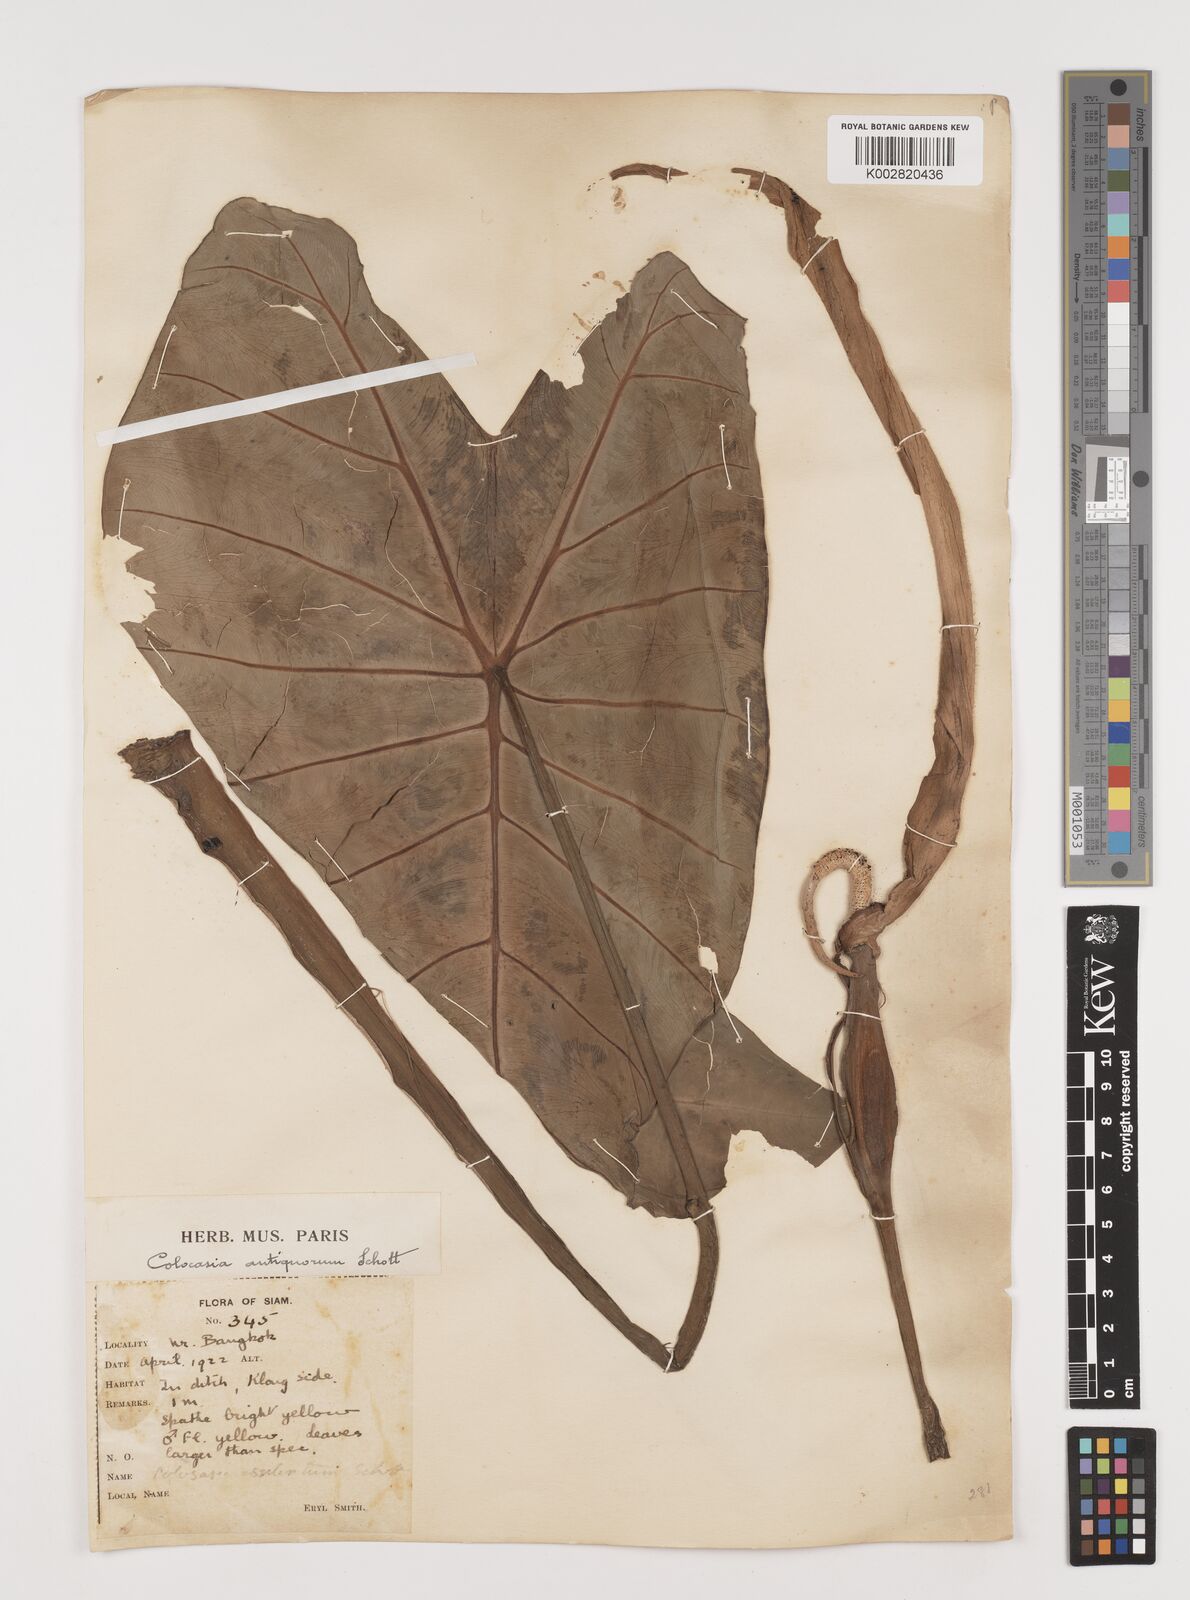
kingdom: Plantae
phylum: Tracheophyta
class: Liliopsida
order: Alismatales
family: Araceae
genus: Colocasia
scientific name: Colocasia esculenta
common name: Taro
